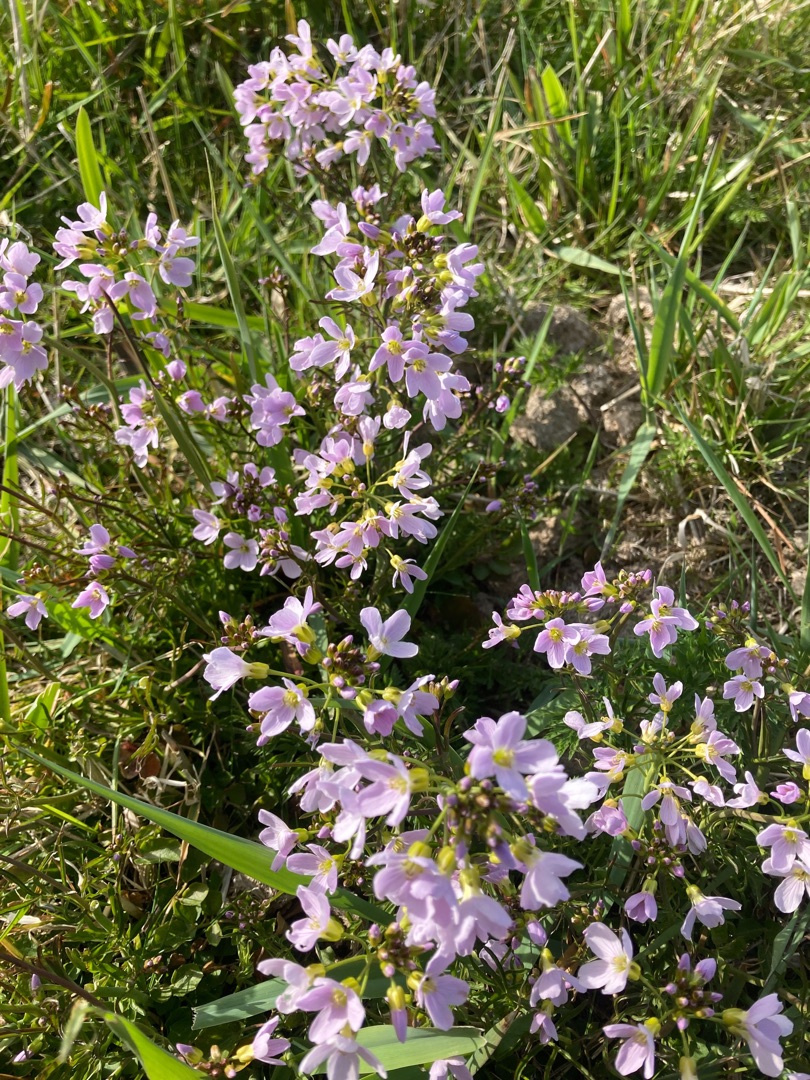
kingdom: Plantae
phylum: Tracheophyta
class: Magnoliopsida
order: Brassicales
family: Brassicaceae
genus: Cardamine
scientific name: Cardamine pratensis
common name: Engkarse
